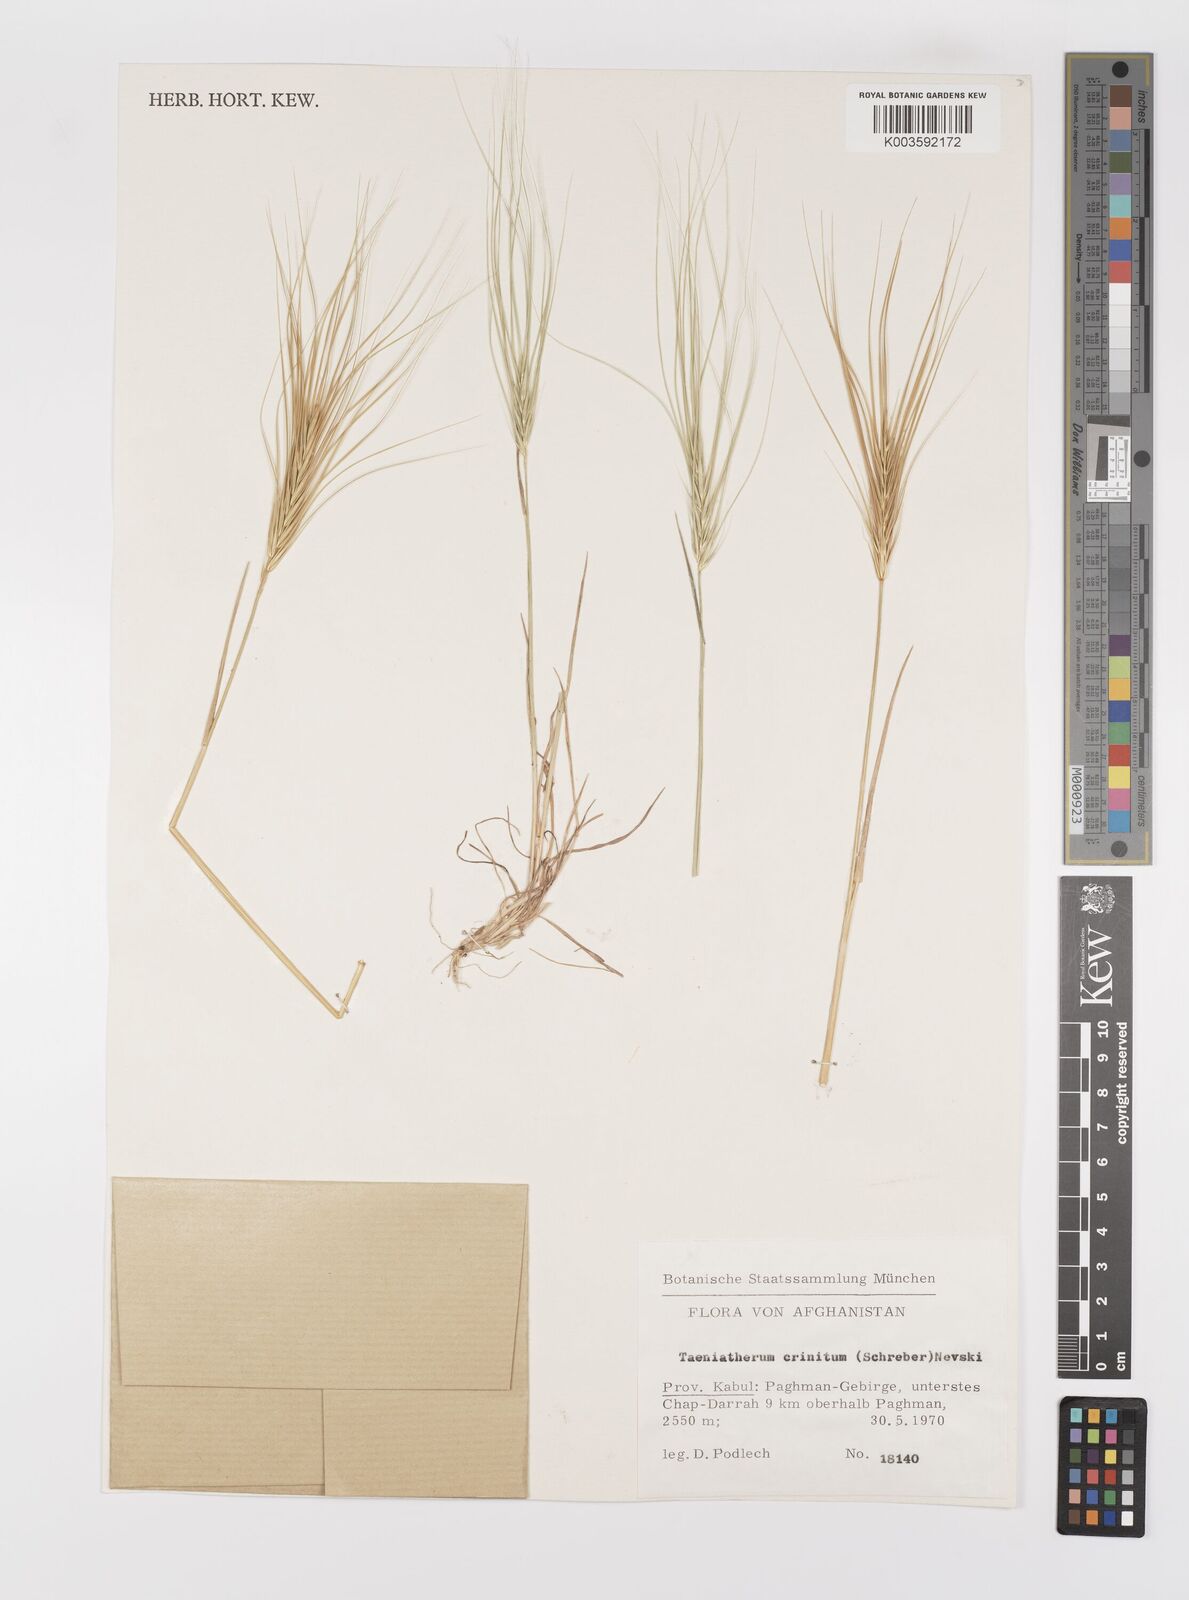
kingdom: Plantae
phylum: Tracheophyta
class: Liliopsida
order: Poales
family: Poaceae
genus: Taeniatherum
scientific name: Taeniatherum caput-medusae
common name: Medusahead
